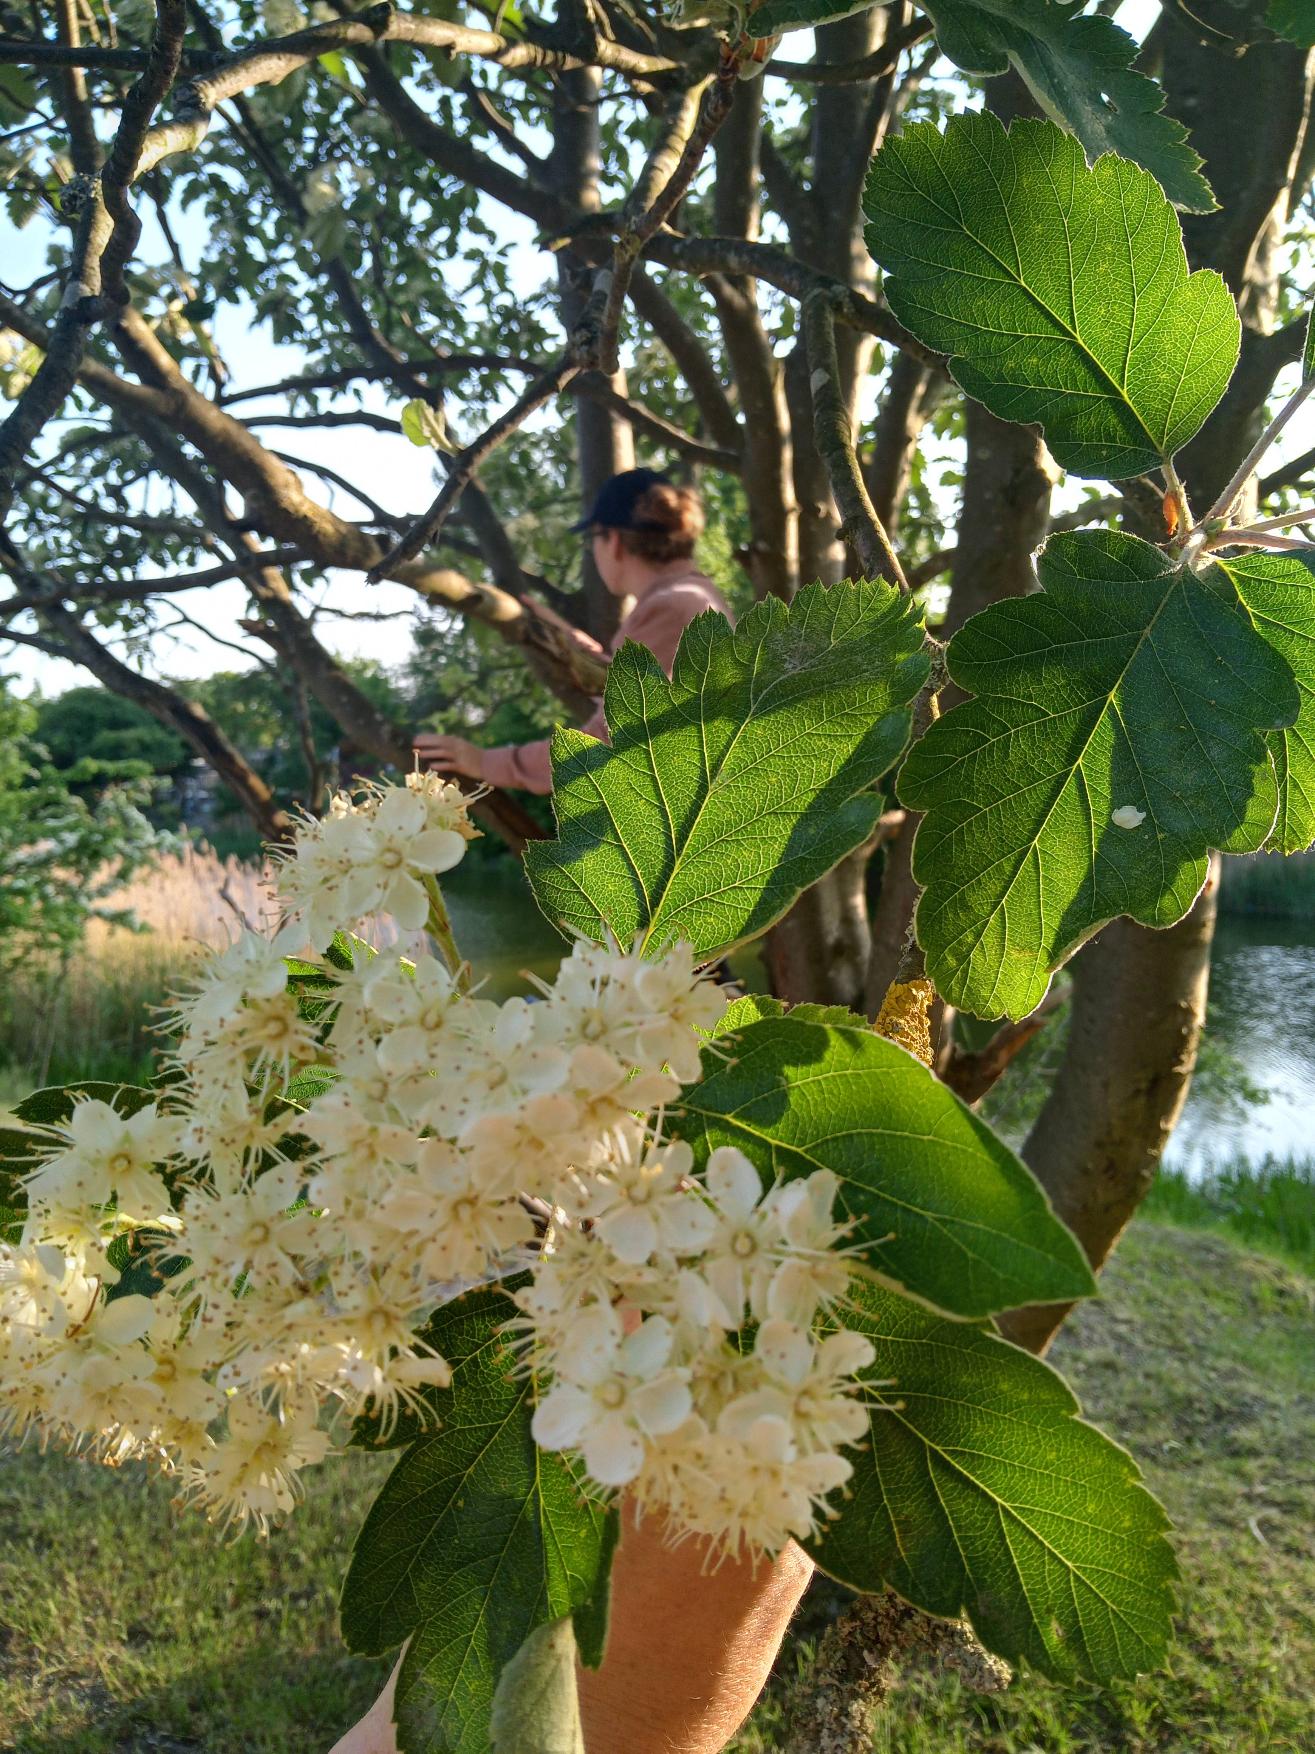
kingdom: Plantae
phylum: Tracheophyta
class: Magnoliopsida
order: Rosales
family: Rosaceae
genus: Scandosorbus
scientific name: Scandosorbus intermedia
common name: Selje-røn
